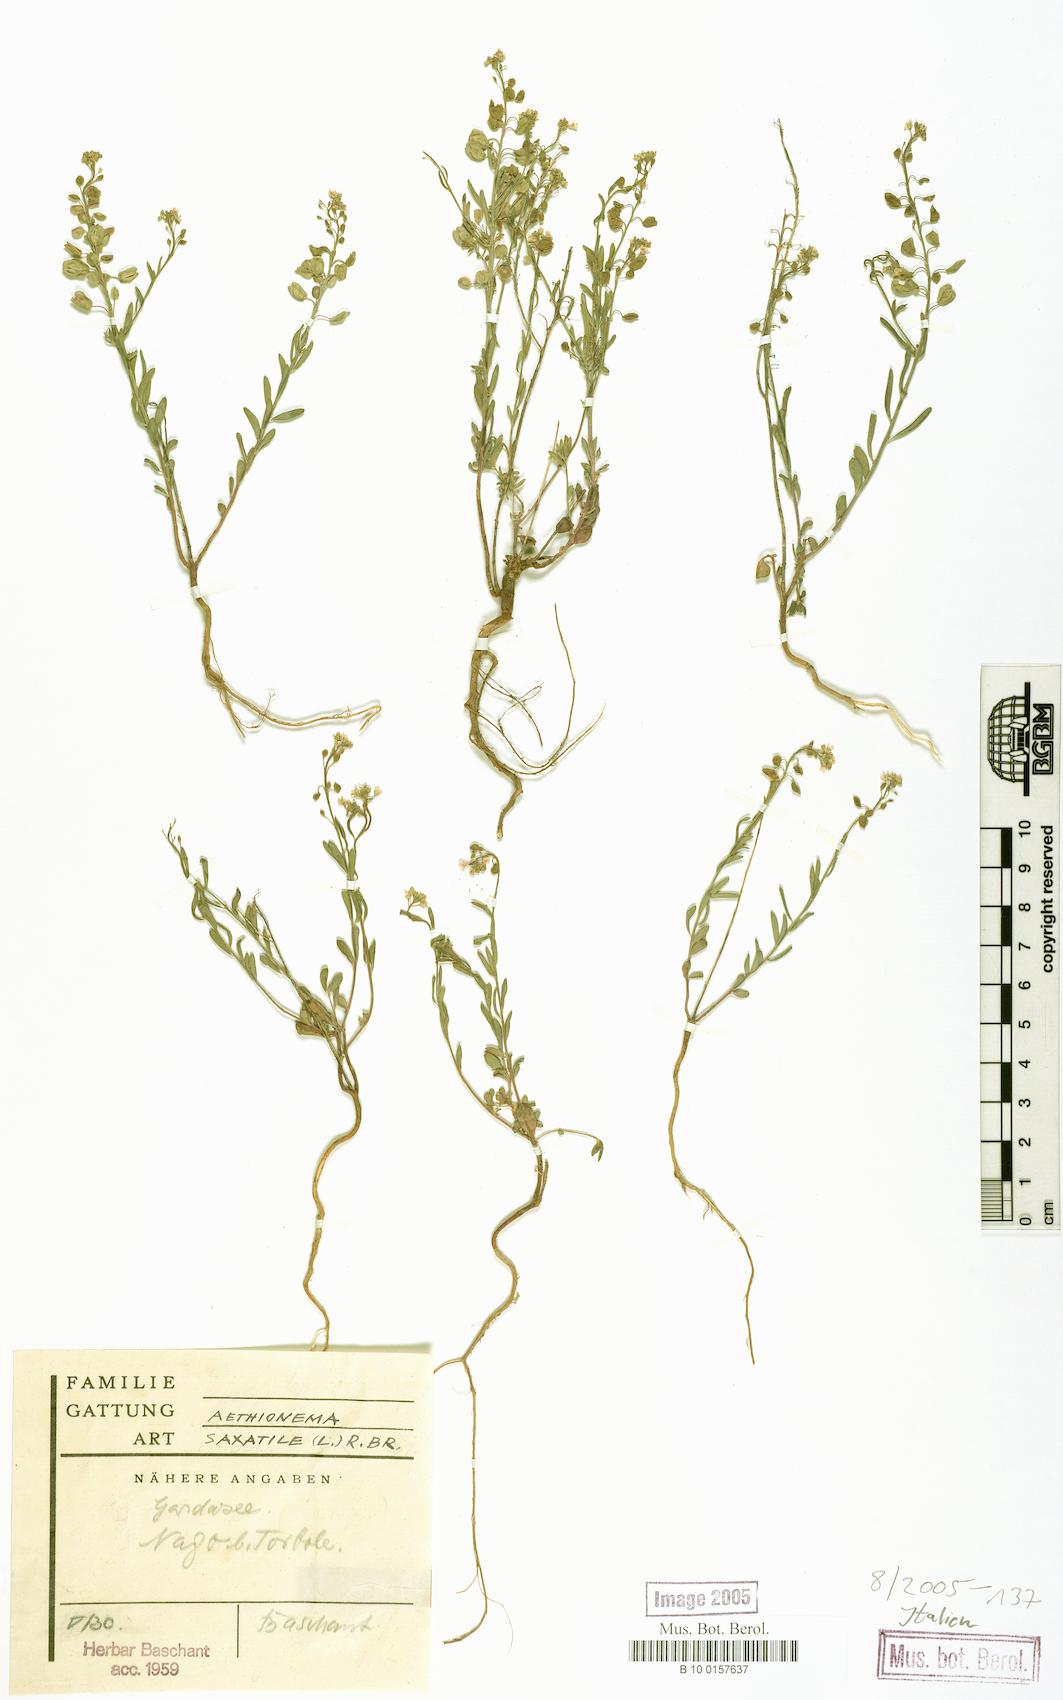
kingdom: Plantae
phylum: Tracheophyta
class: Magnoliopsida
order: Brassicales
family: Brassicaceae
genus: Aethionema
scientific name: Aethionema saxatile
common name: Burnt candytuft
